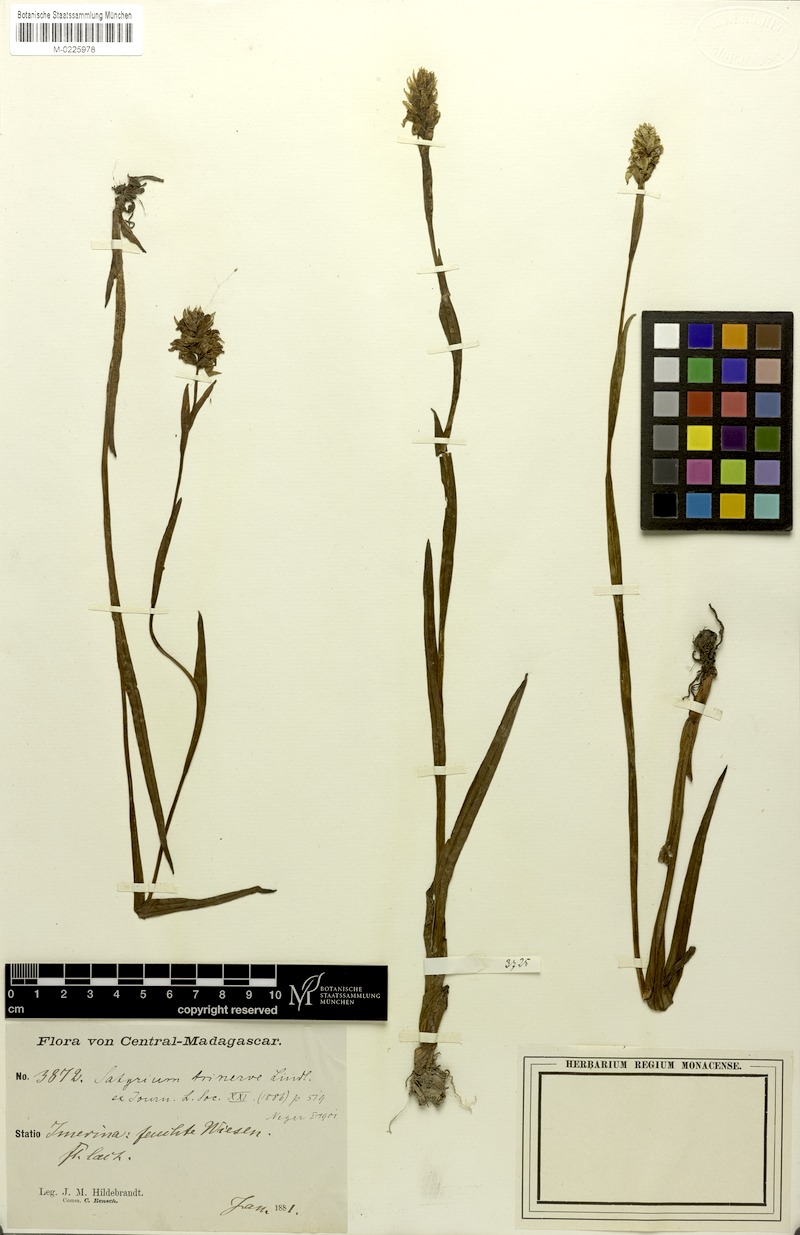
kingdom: Plantae
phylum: Tracheophyta
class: Liliopsida
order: Asparagales
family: Orchidaceae
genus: Satyrium
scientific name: Satyrium trinerve
